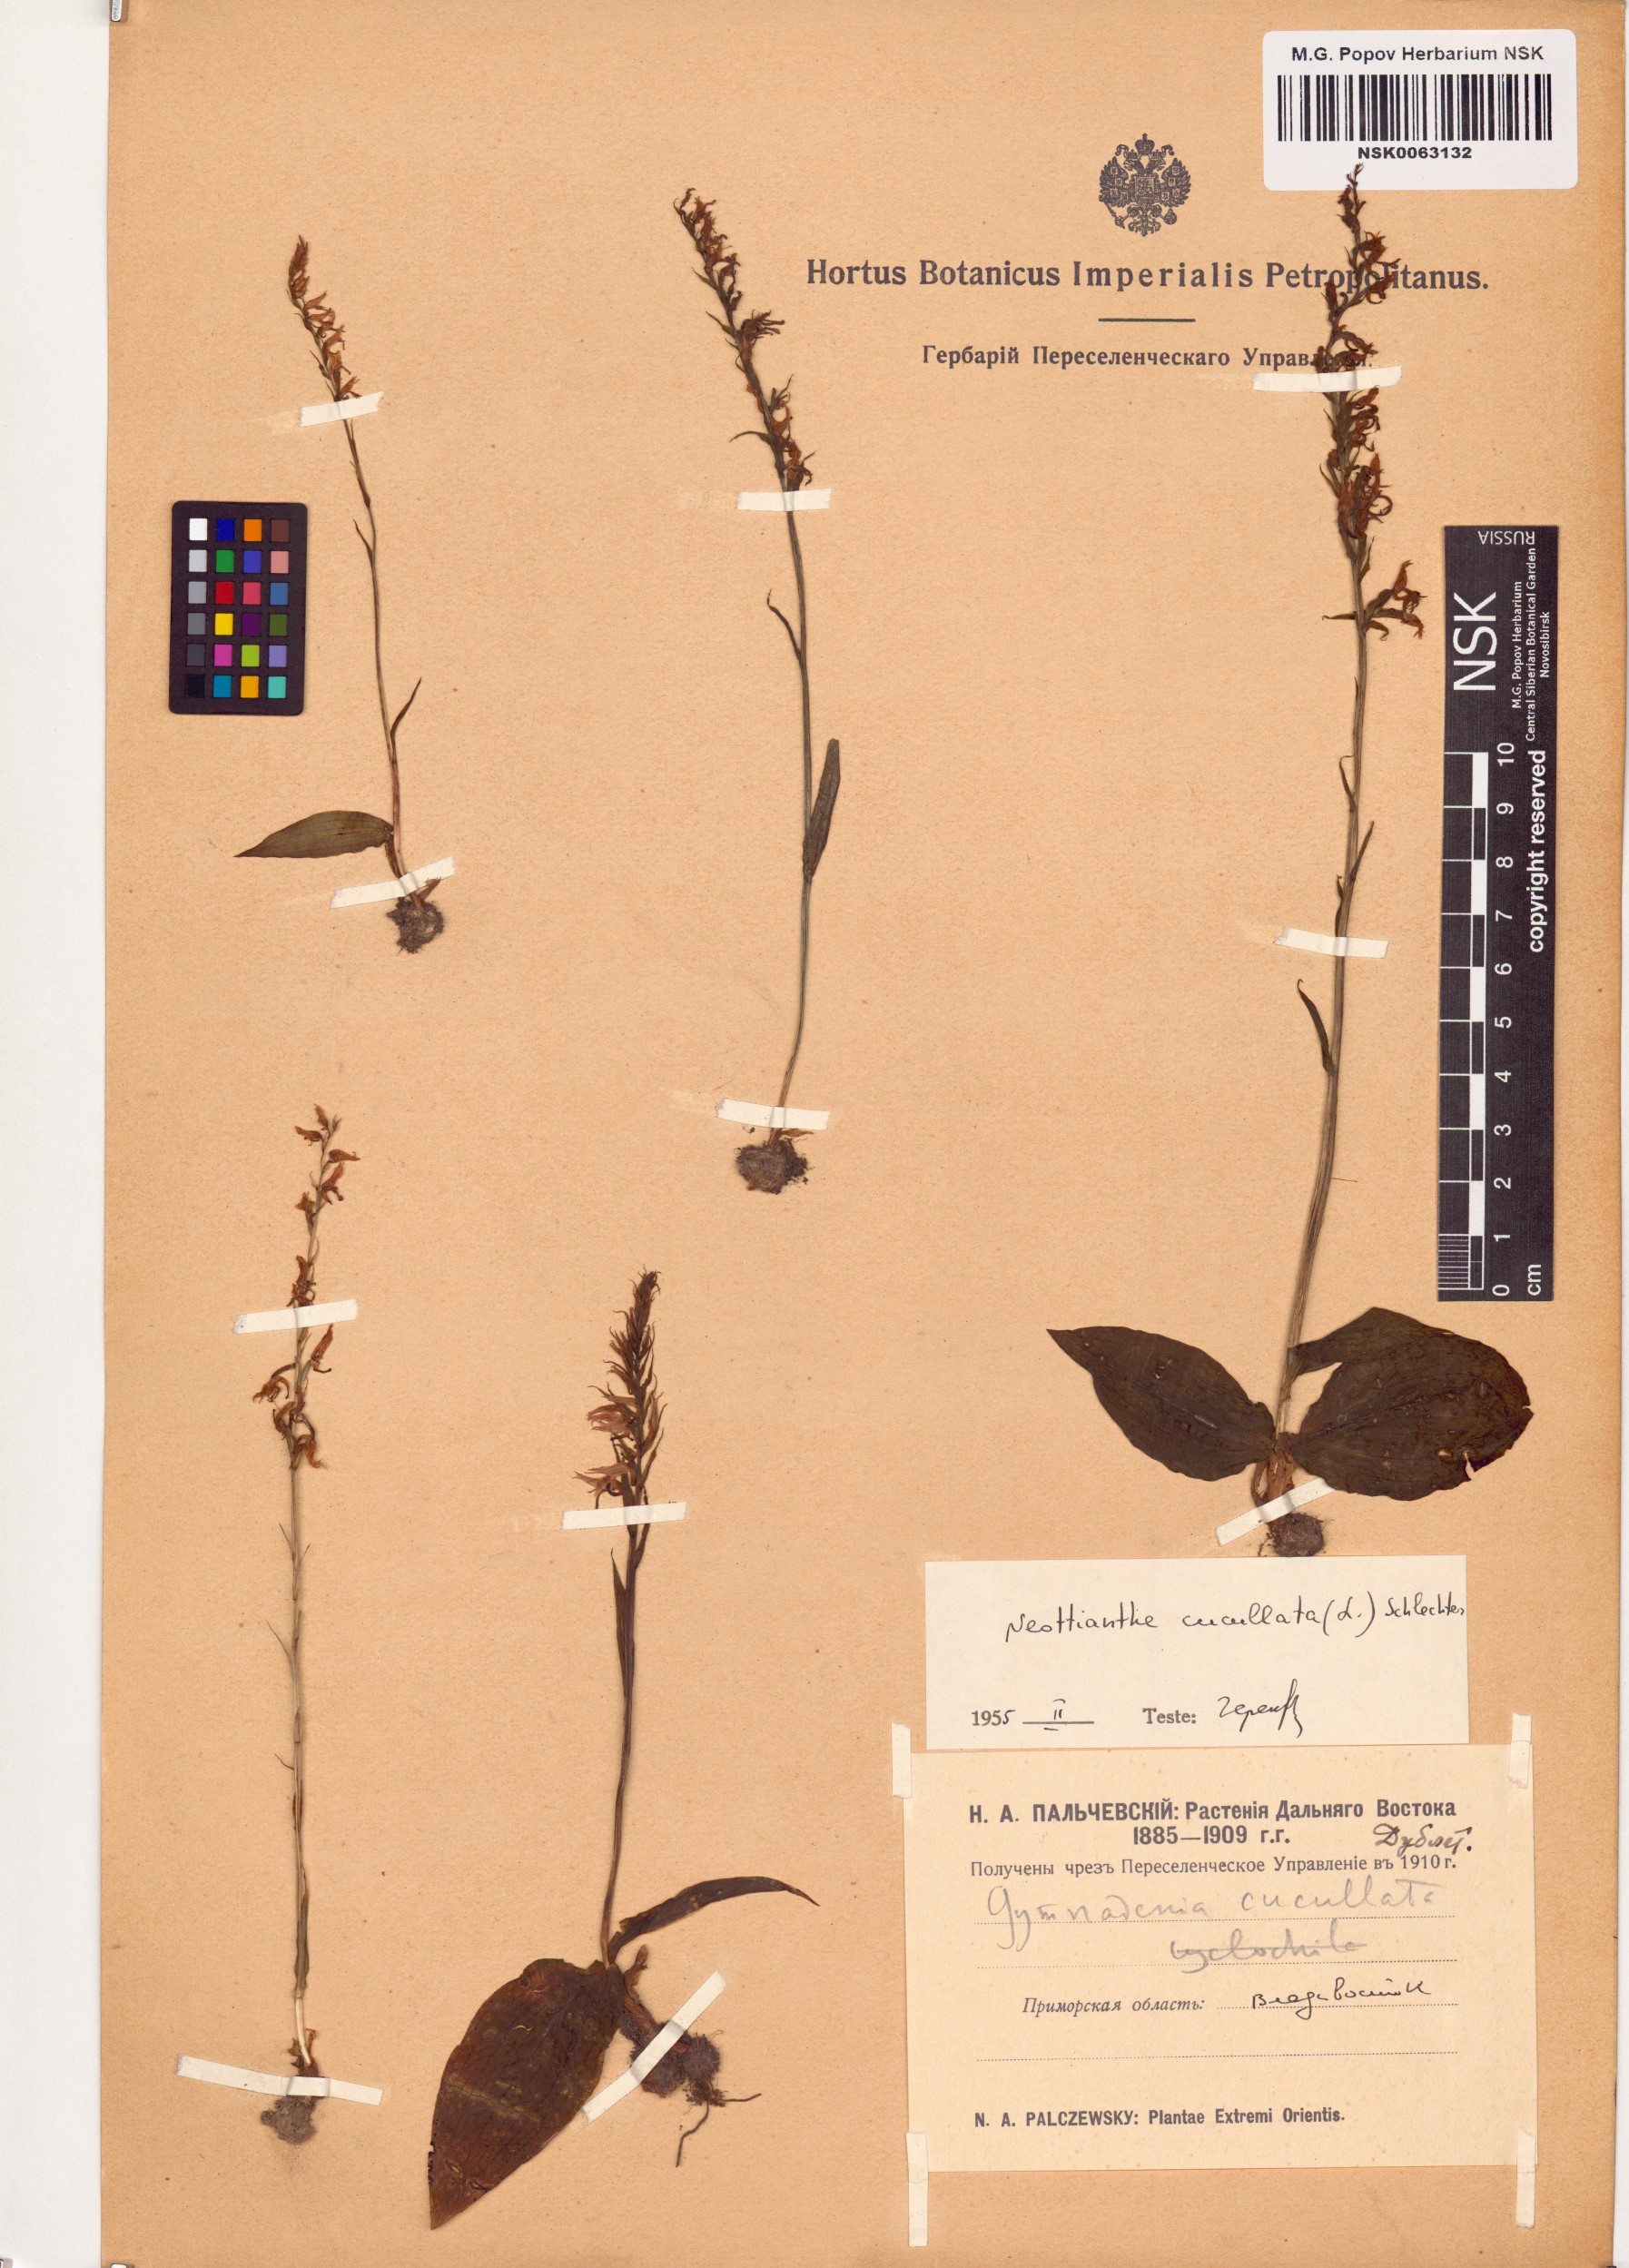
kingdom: Plantae
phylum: Tracheophyta
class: Liliopsida
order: Asparagales
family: Orchidaceae
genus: Hemipilia
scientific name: Hemipilia cucullata
